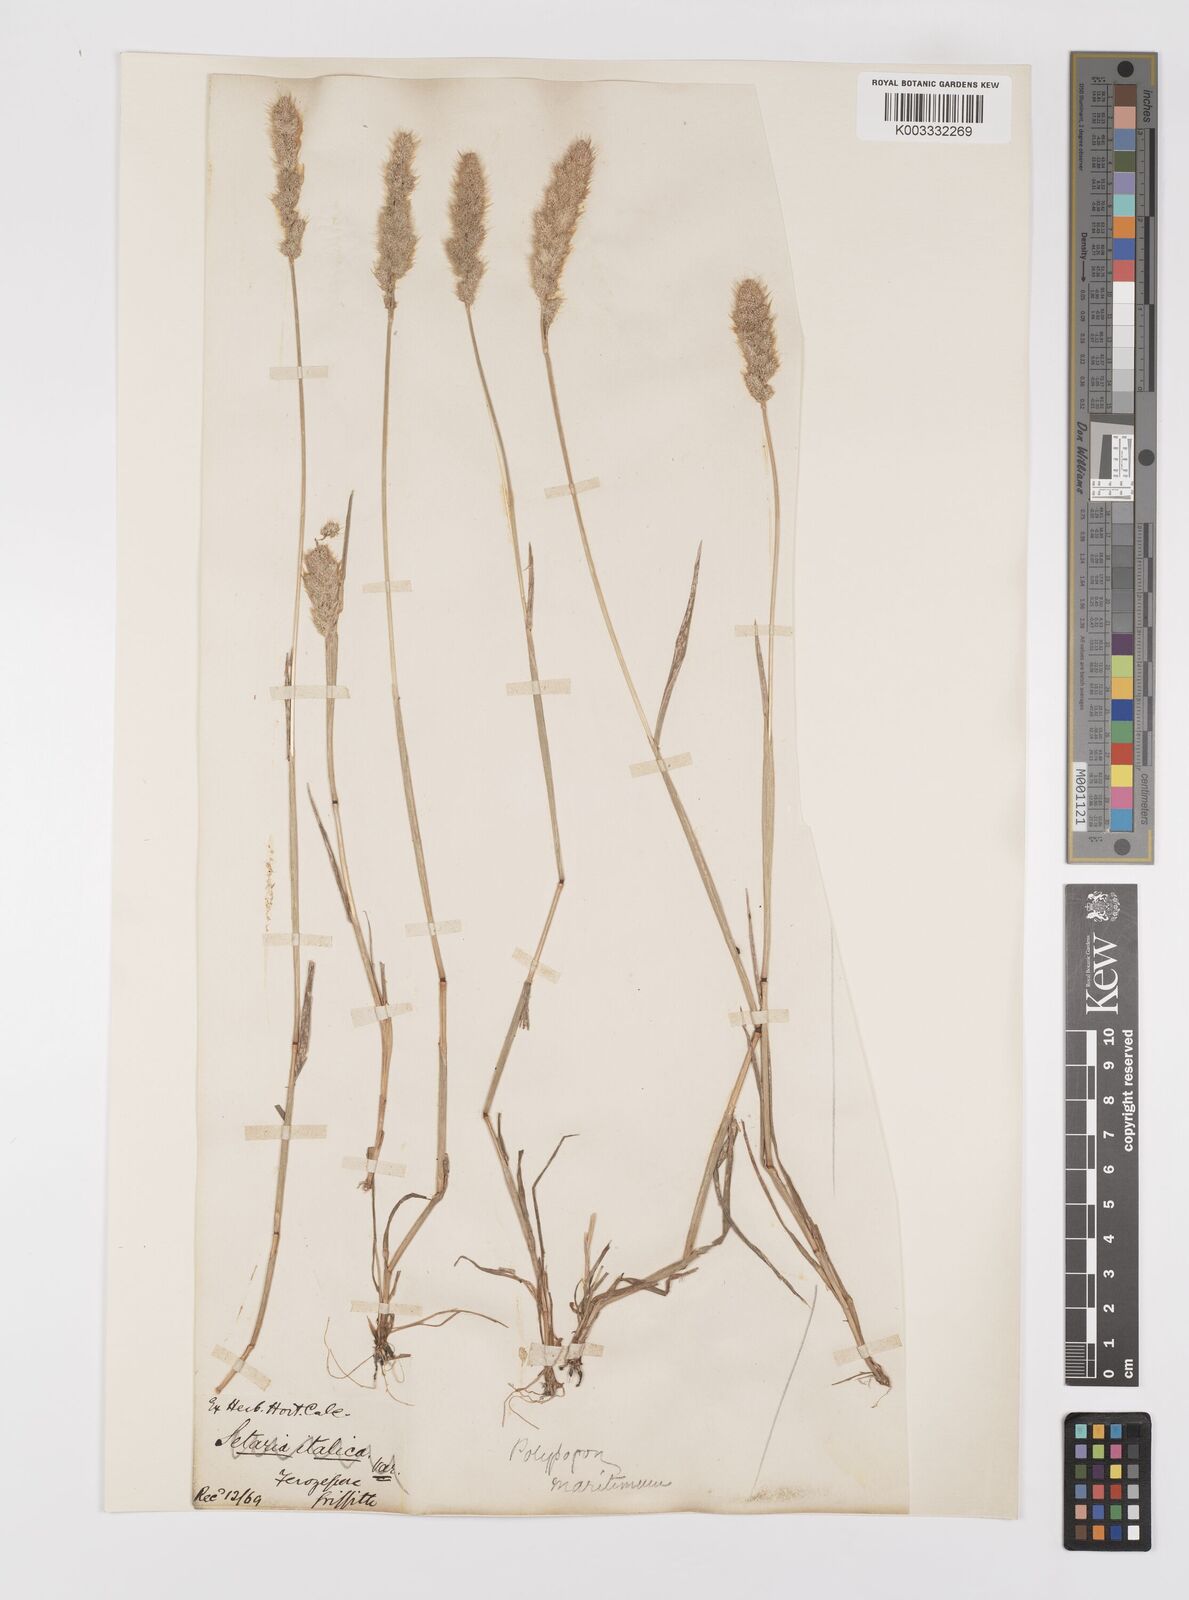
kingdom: Plantae
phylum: Tracheophyta
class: Liliopsida
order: Poales
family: Poaceae
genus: Polypogon
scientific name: Polypogon monspeliensis
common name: Annual rabbitsfoot grass
